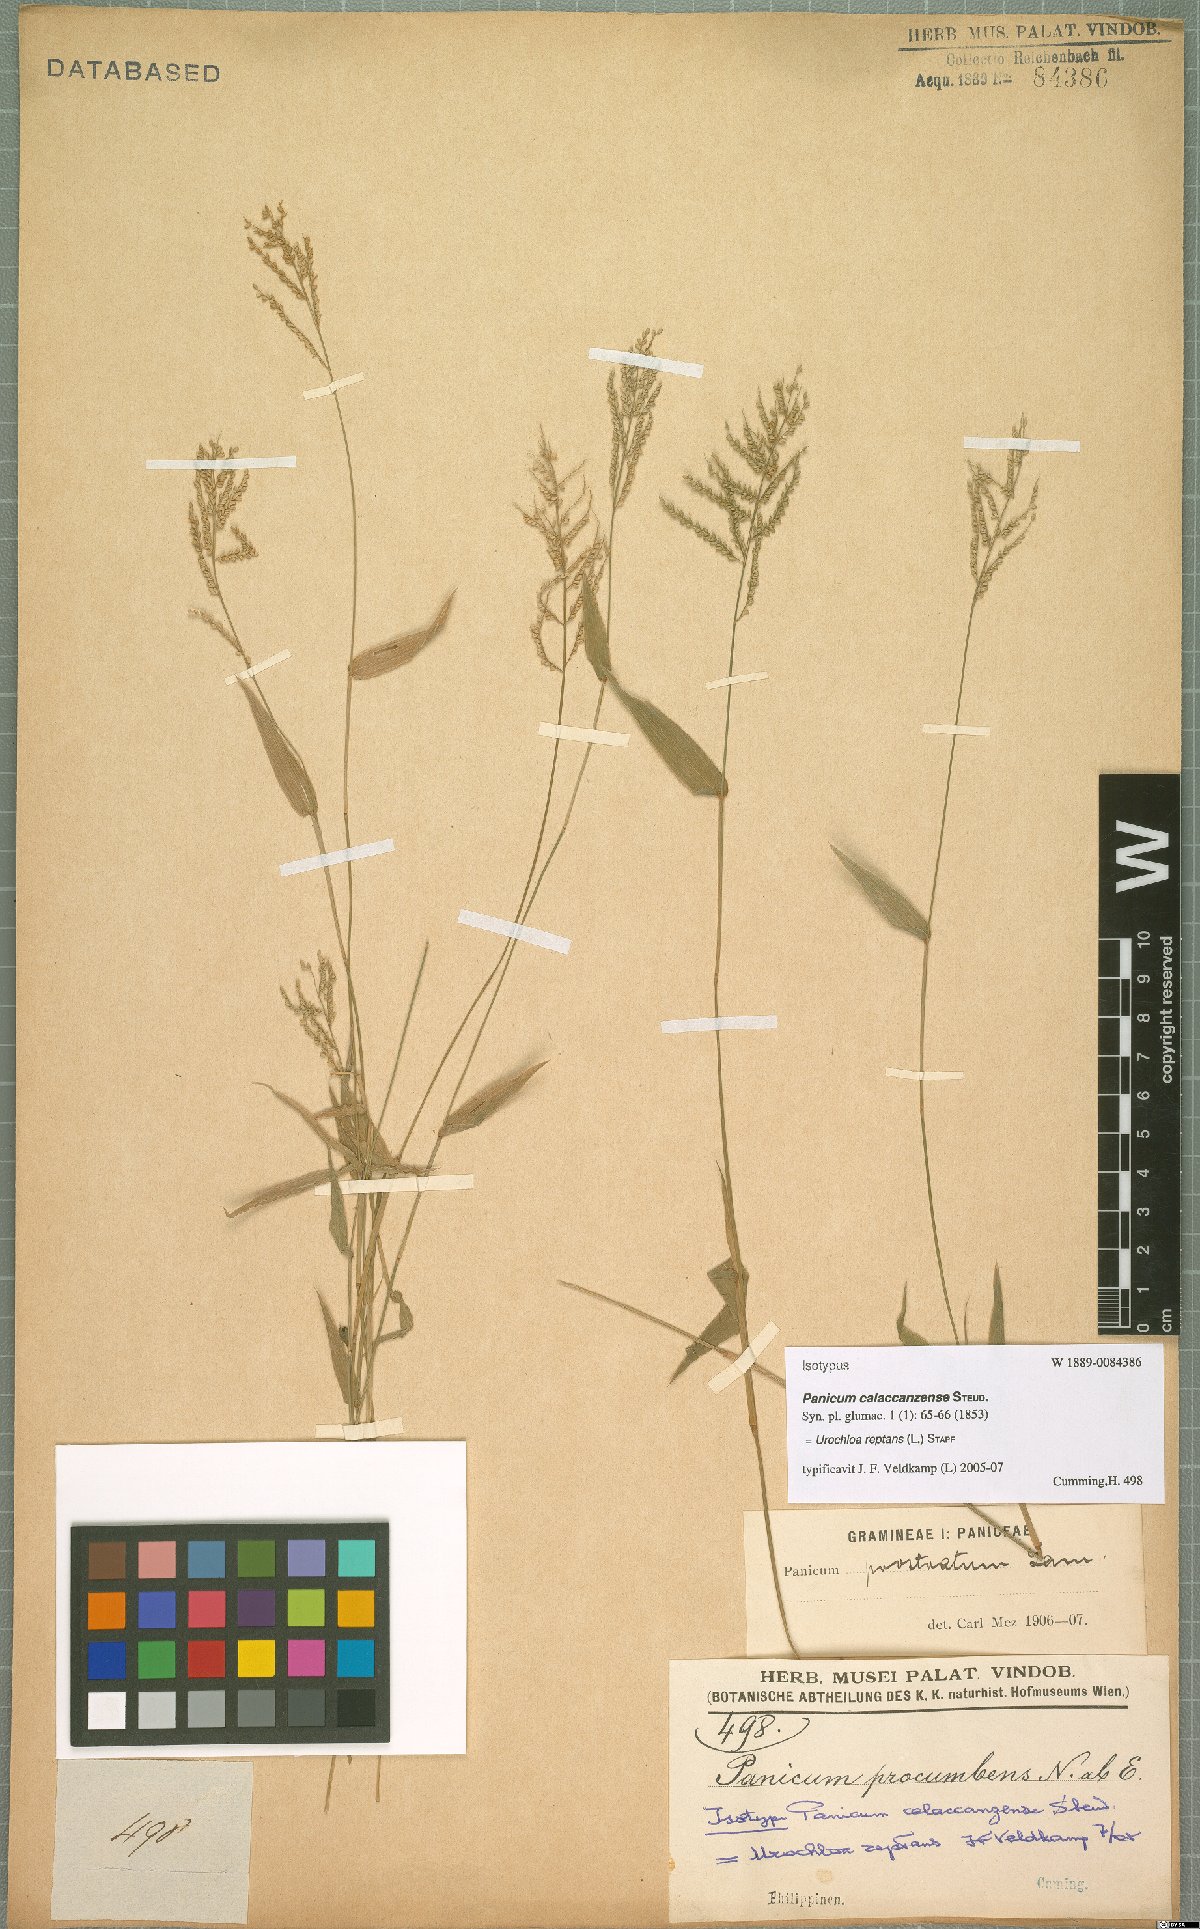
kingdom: Plantae
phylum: Tracheophyta
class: Liliopsida
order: Poales
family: Poaceae
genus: Urochloa
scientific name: Urochloa reptans
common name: Sprawling signalgrass
